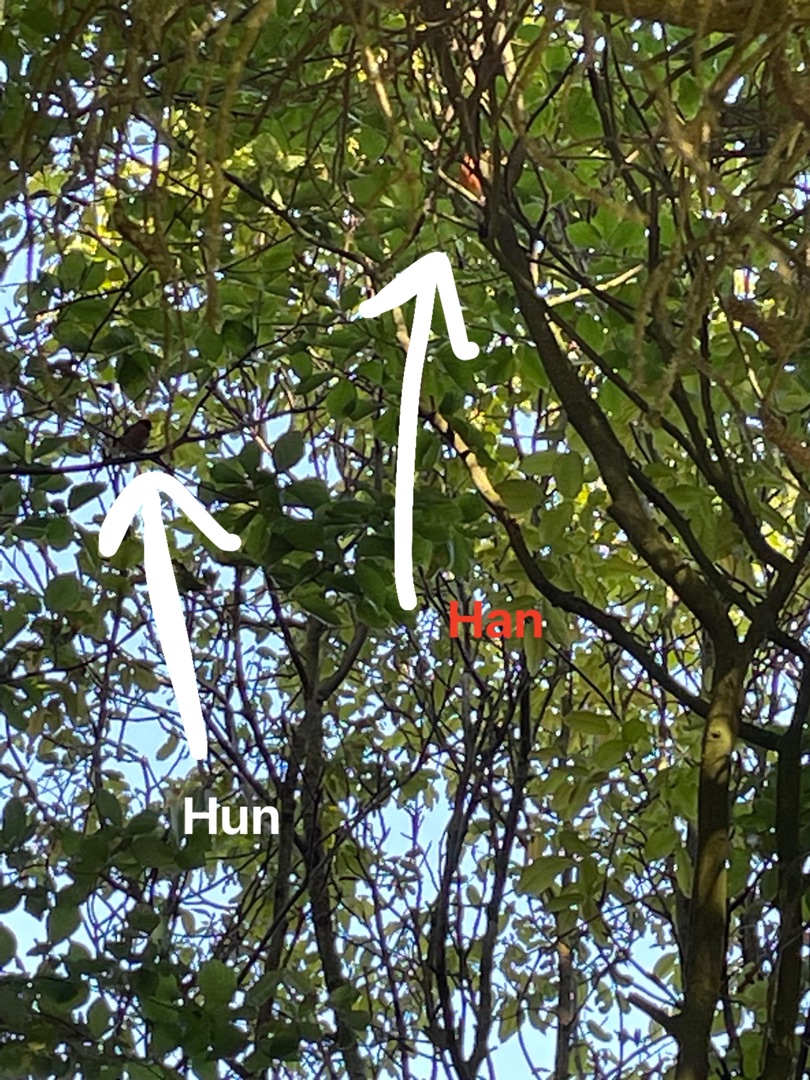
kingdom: Animalia
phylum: Chordata
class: Aves
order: Passeriformes
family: Fringillidae
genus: Pyrrhula
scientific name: Pyrrhula pyrrhula
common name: Dompap
